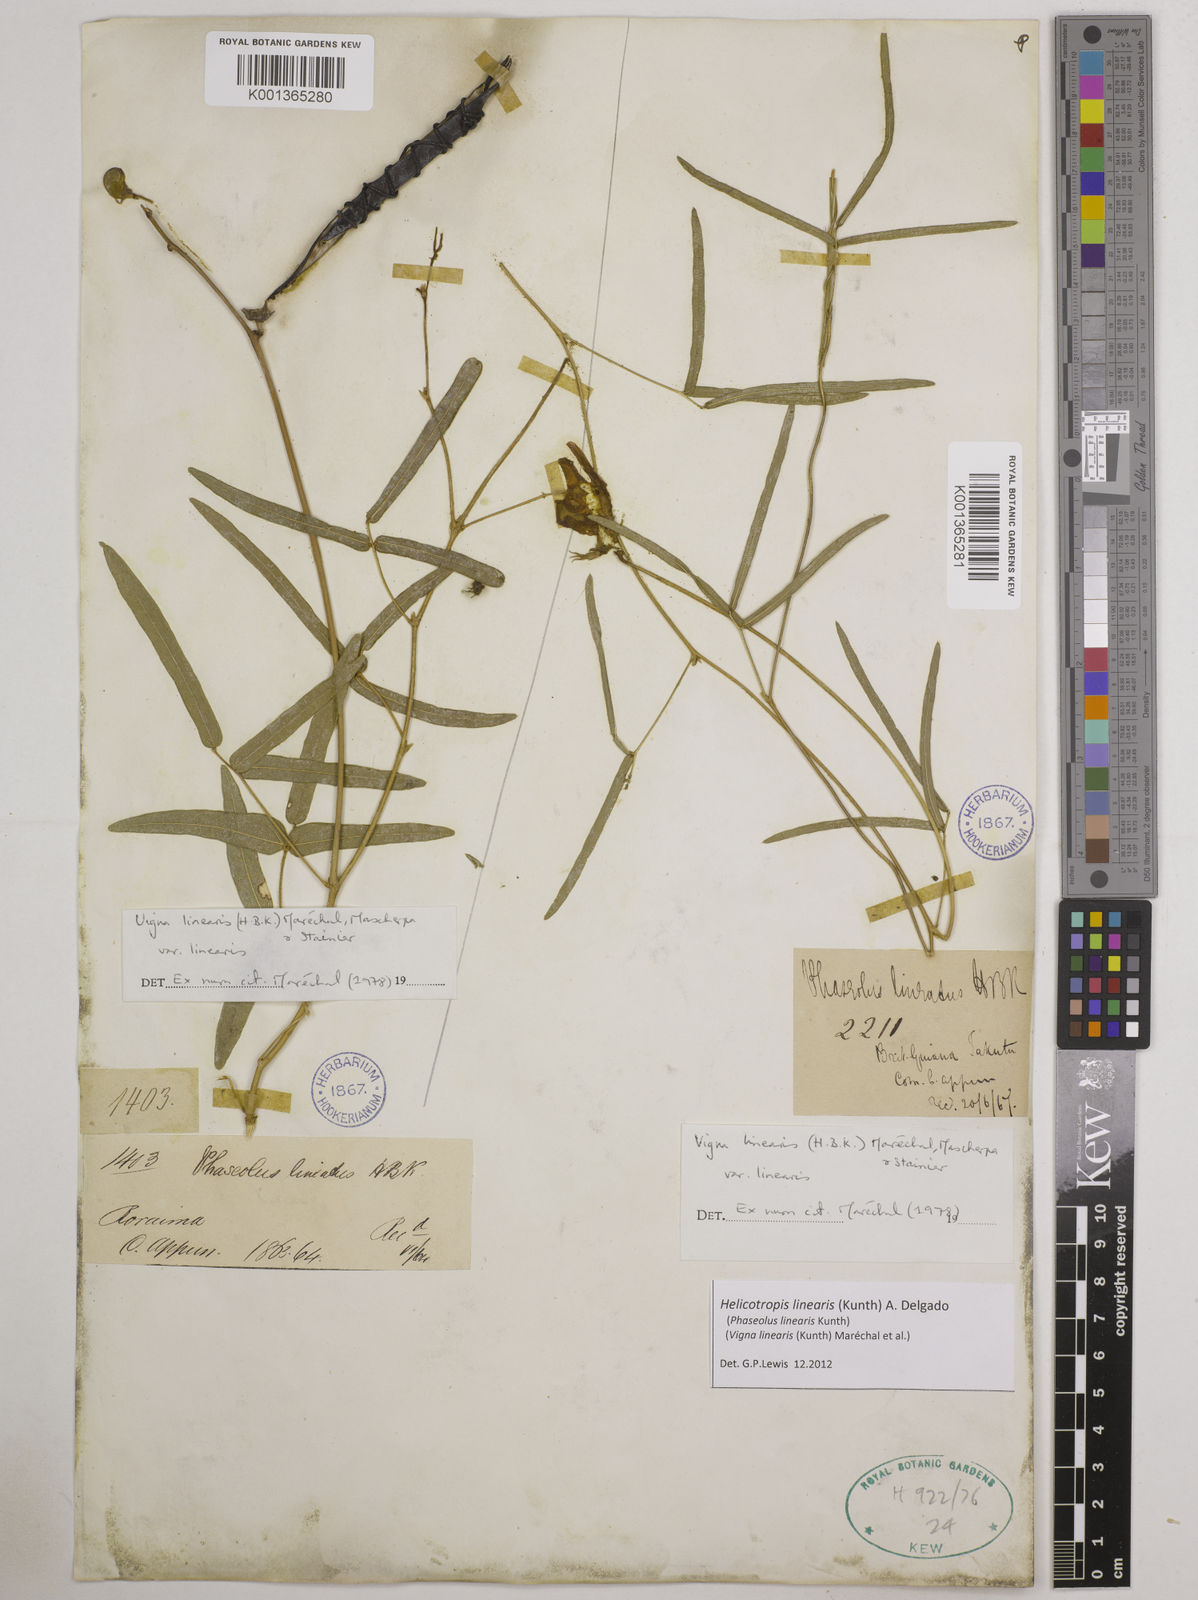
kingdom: Plantae
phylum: Tracheophyta
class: Magnoliopsida
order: Fabales
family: Fabaceae
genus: Helicotropis
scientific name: Helicotropis linearis
